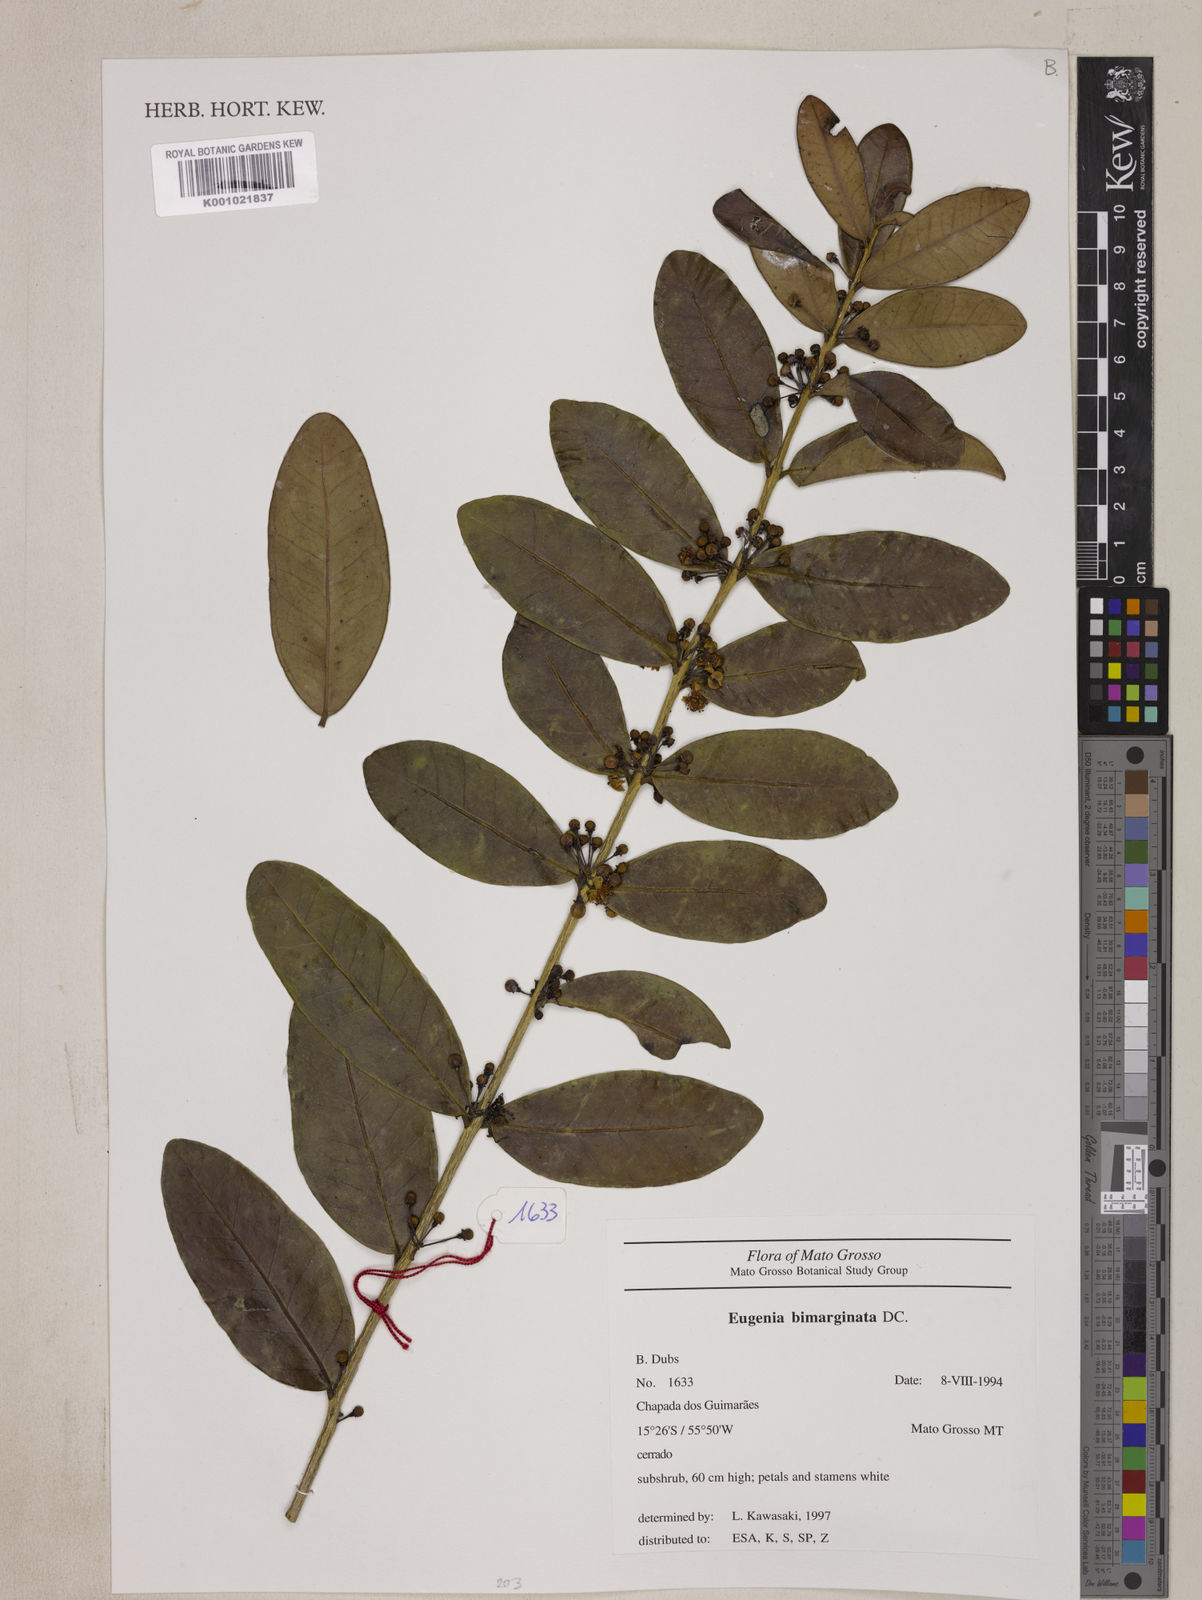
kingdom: Plantae
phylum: Tracheophyta
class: Magnoliopsida
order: Myrtales
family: Myrtaceae
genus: Eugenia
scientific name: Eugenia bimarginata
